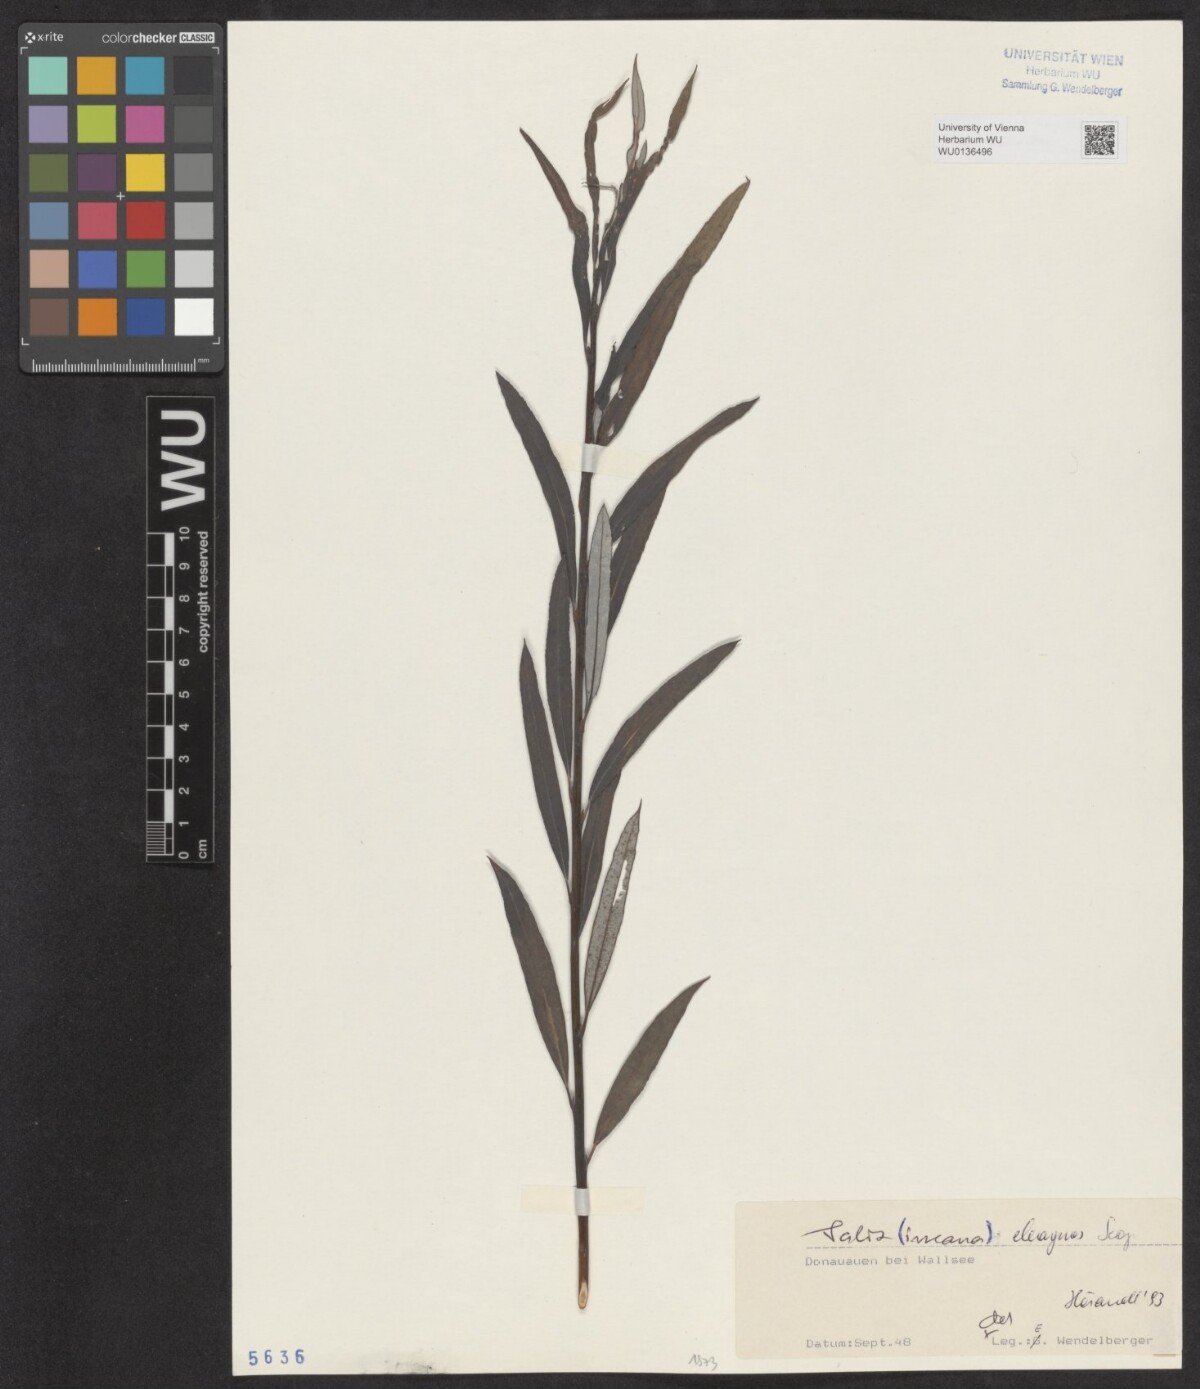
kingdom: Plantae
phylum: Tracheophyta
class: Magnoliopsida
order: Malpighiales
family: Salicaceae
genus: Salix
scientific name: Salix eleagnos
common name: Elaeagnus willow
